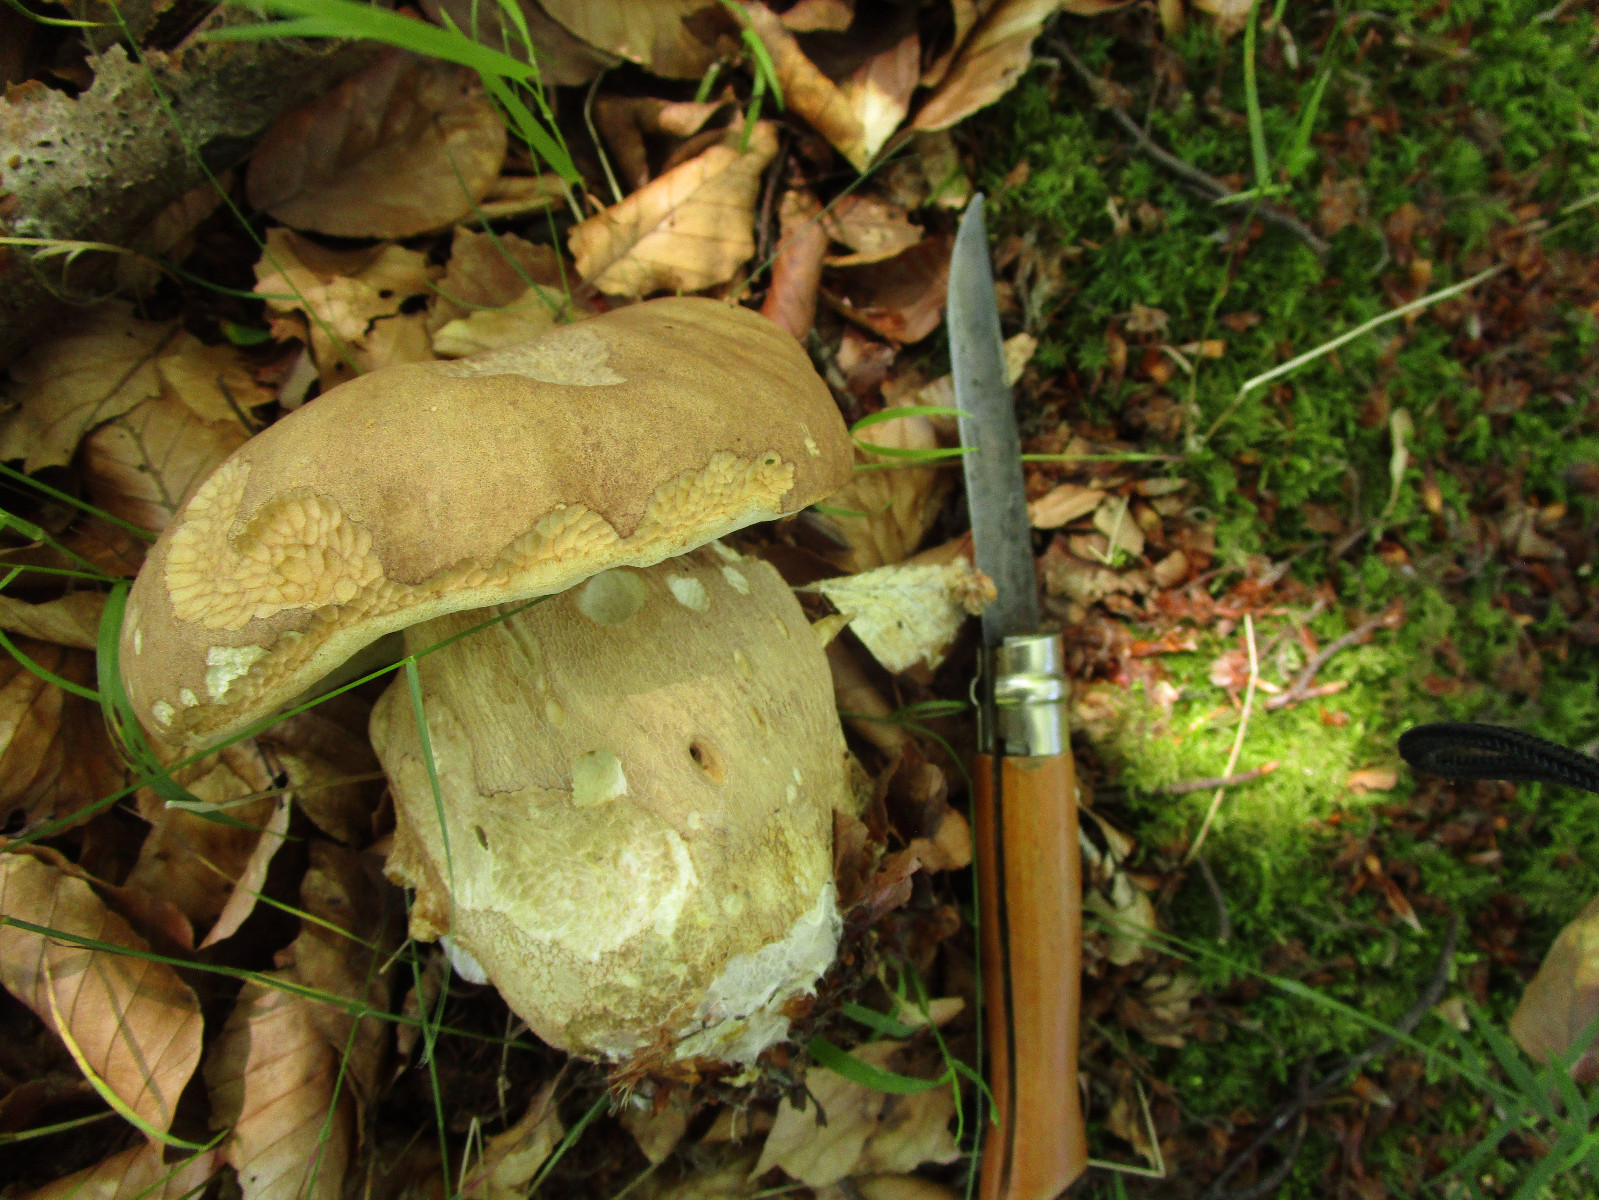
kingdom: Fungi
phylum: Basidiomycota
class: Agaricomycetes
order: Boletales
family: Boletaceae
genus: Boletus
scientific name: Boletus reticulatus
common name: sommer-rørhat
